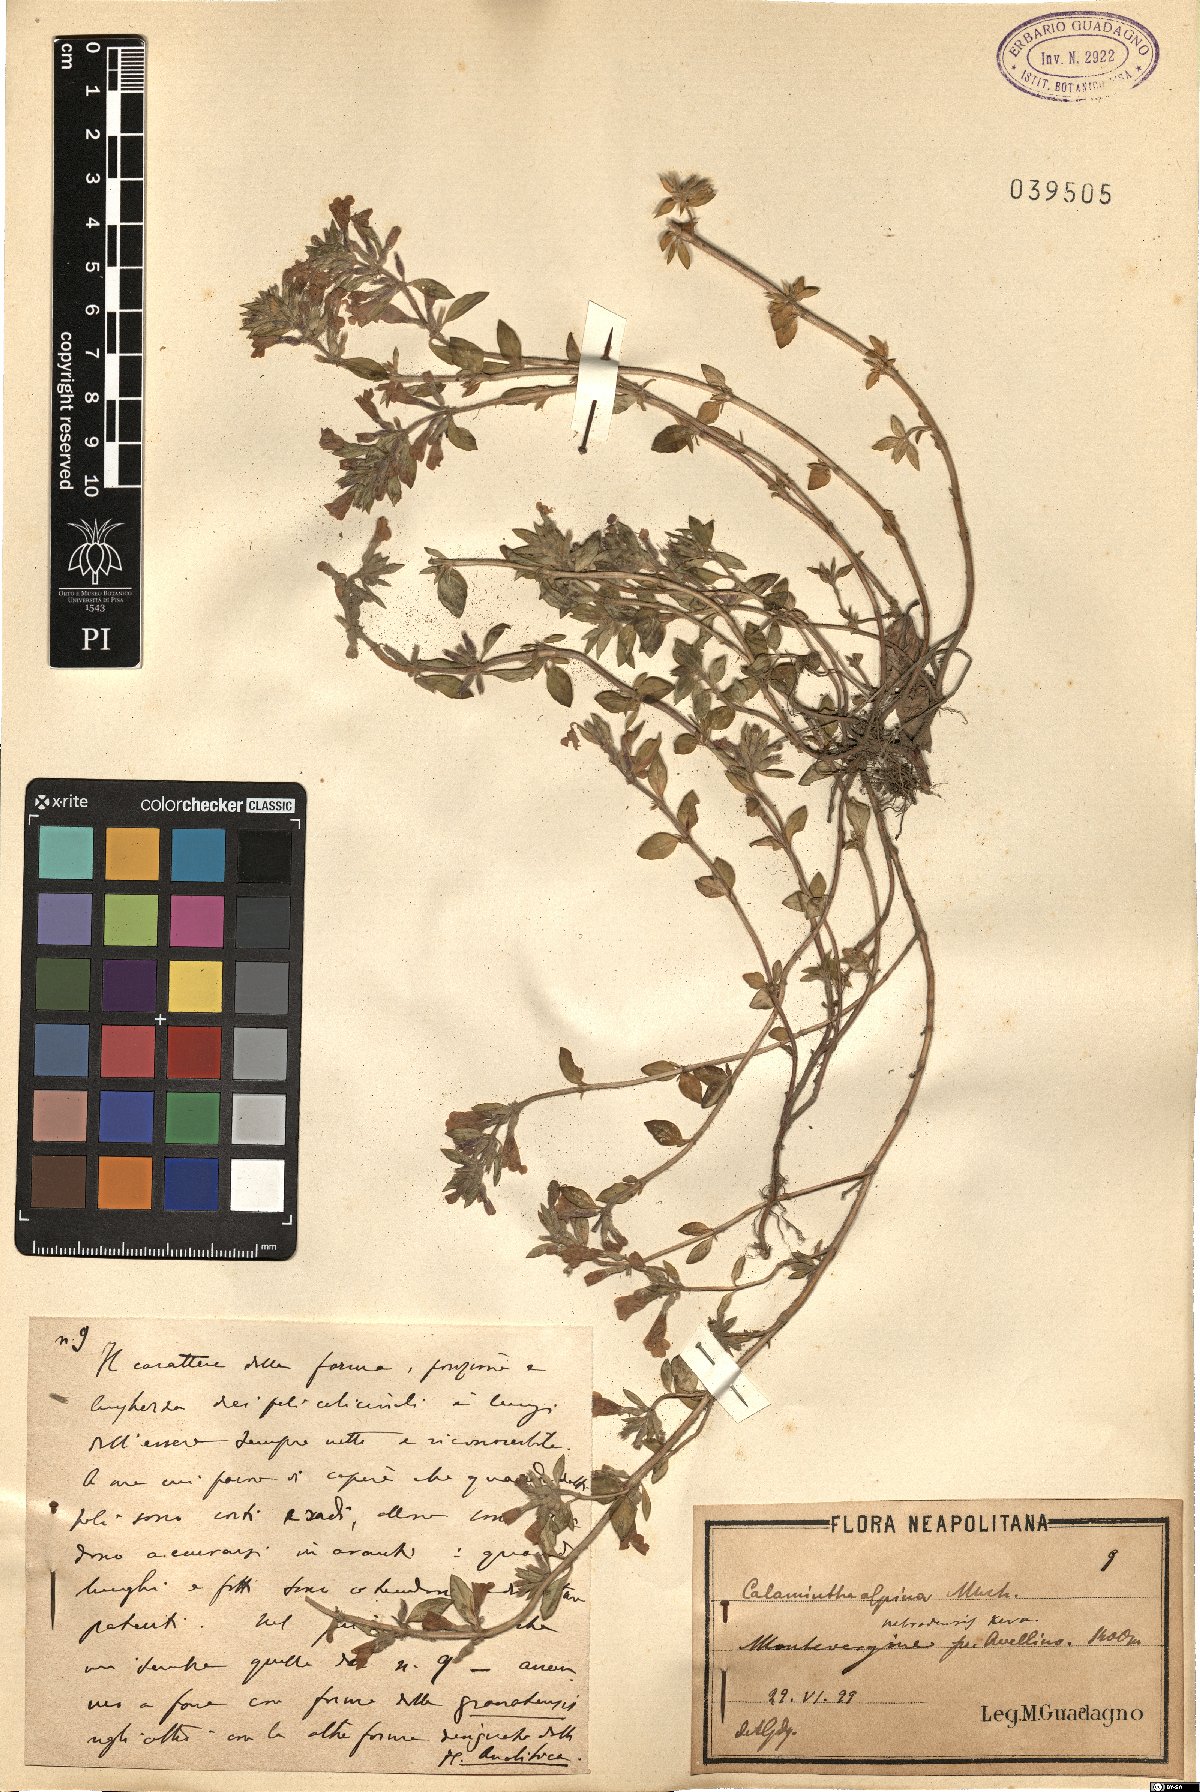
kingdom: Plantae
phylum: Tracheophyta
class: Magnoliopsida
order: Lamiales
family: Lamiaceae
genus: Clinopodium
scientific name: Clinopodium alpinum
